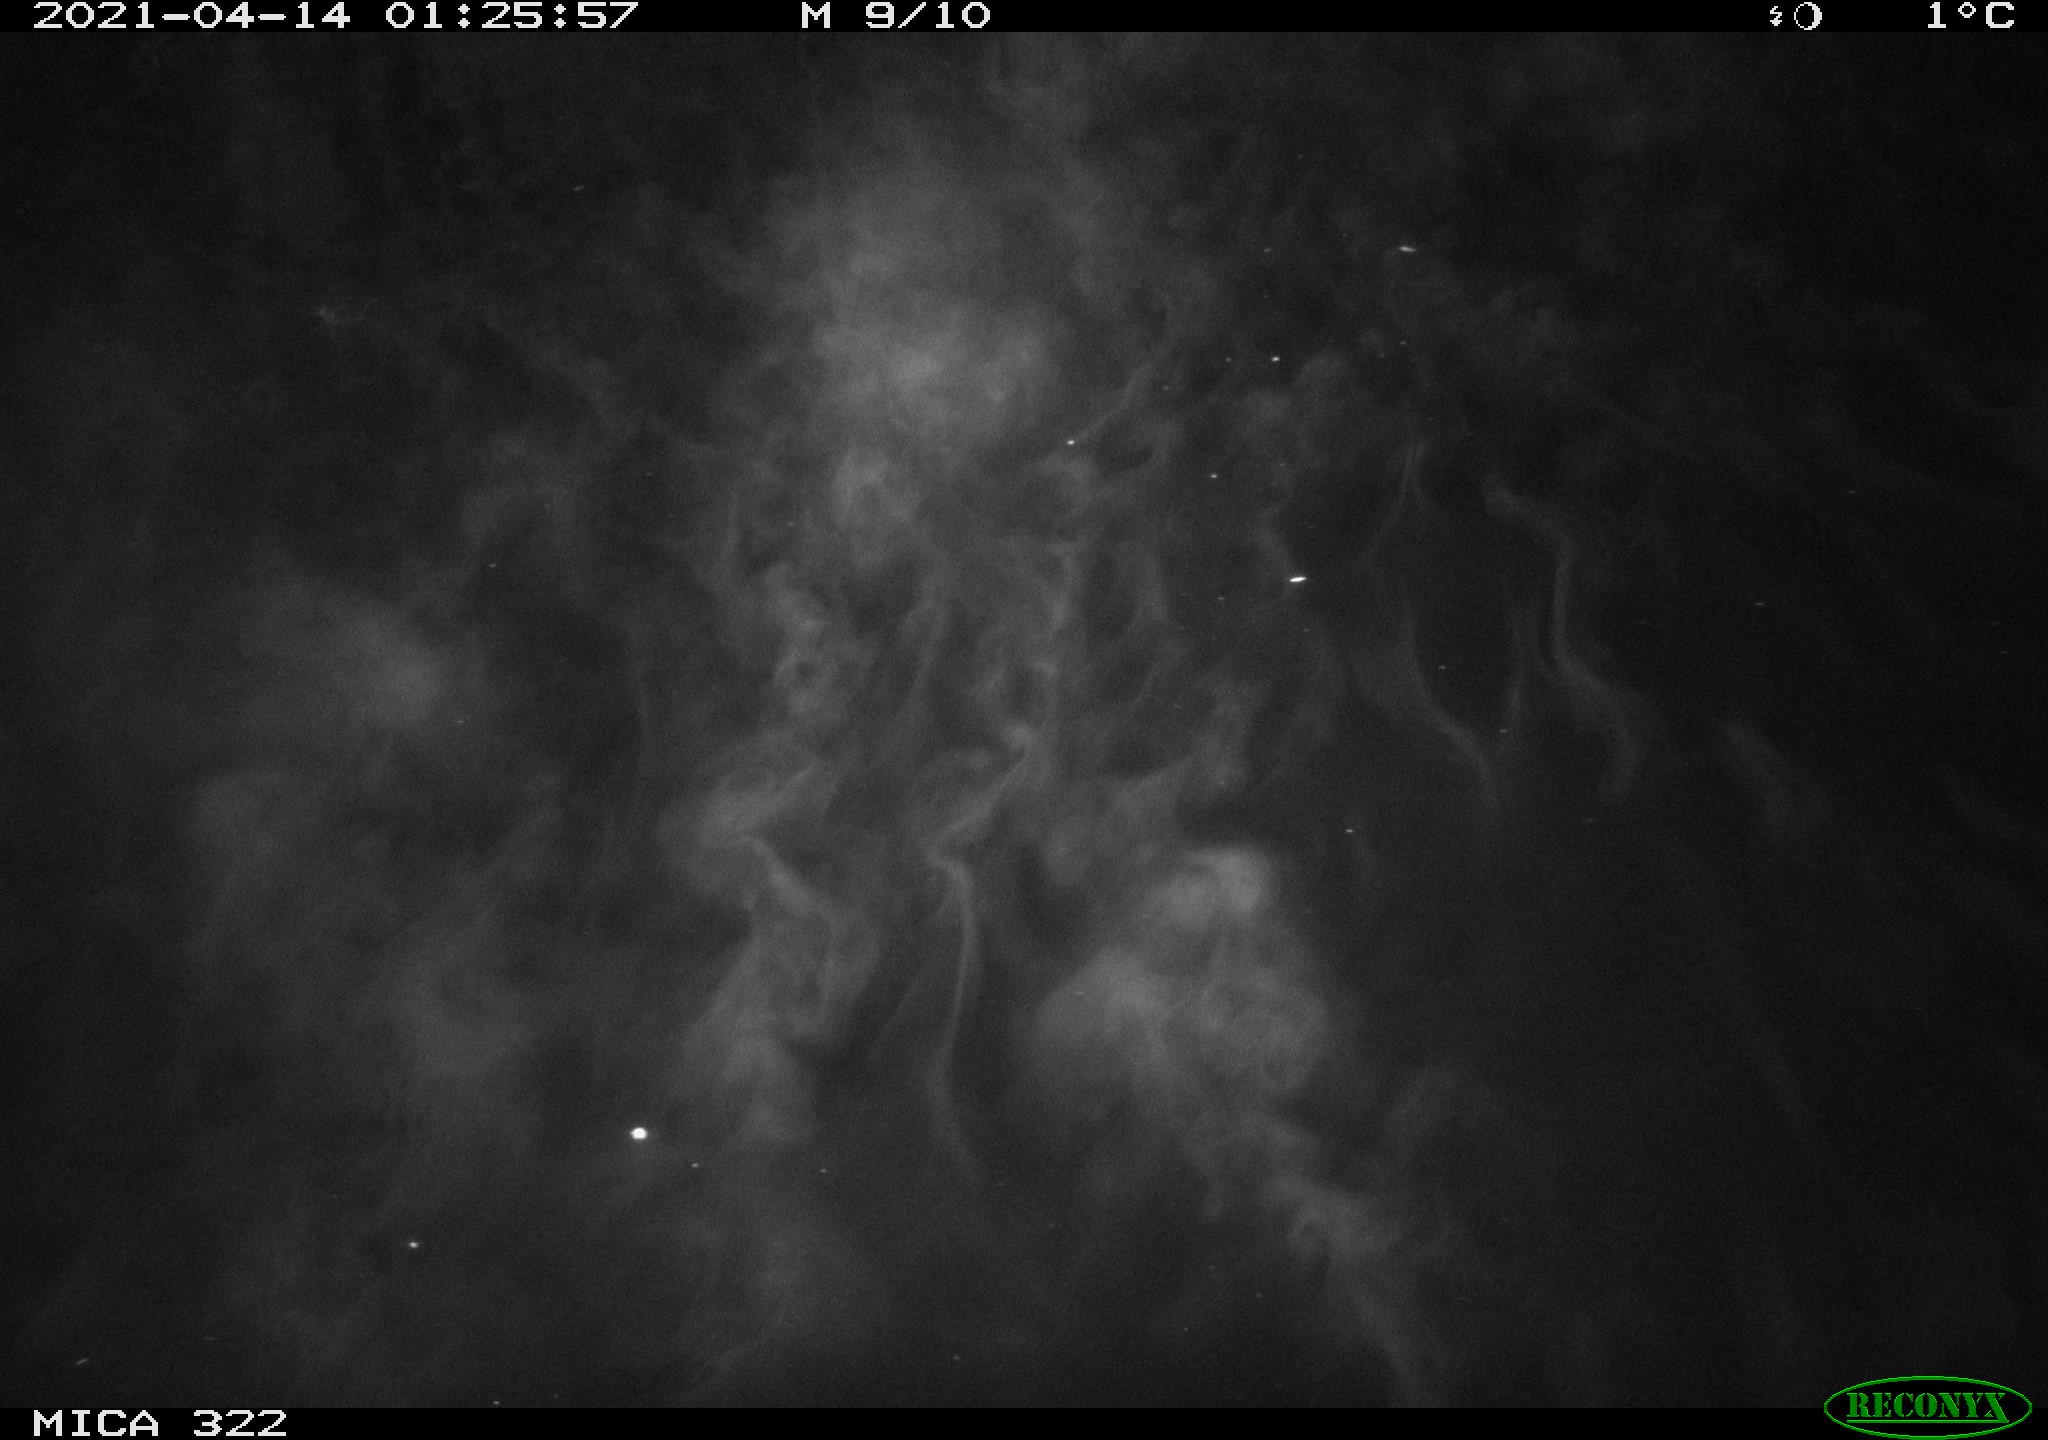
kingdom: Animalia
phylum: Chordata
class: Aves
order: Gruiformes
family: Rallidae
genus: Fulica
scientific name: Fulica atra
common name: Eurasian coot
